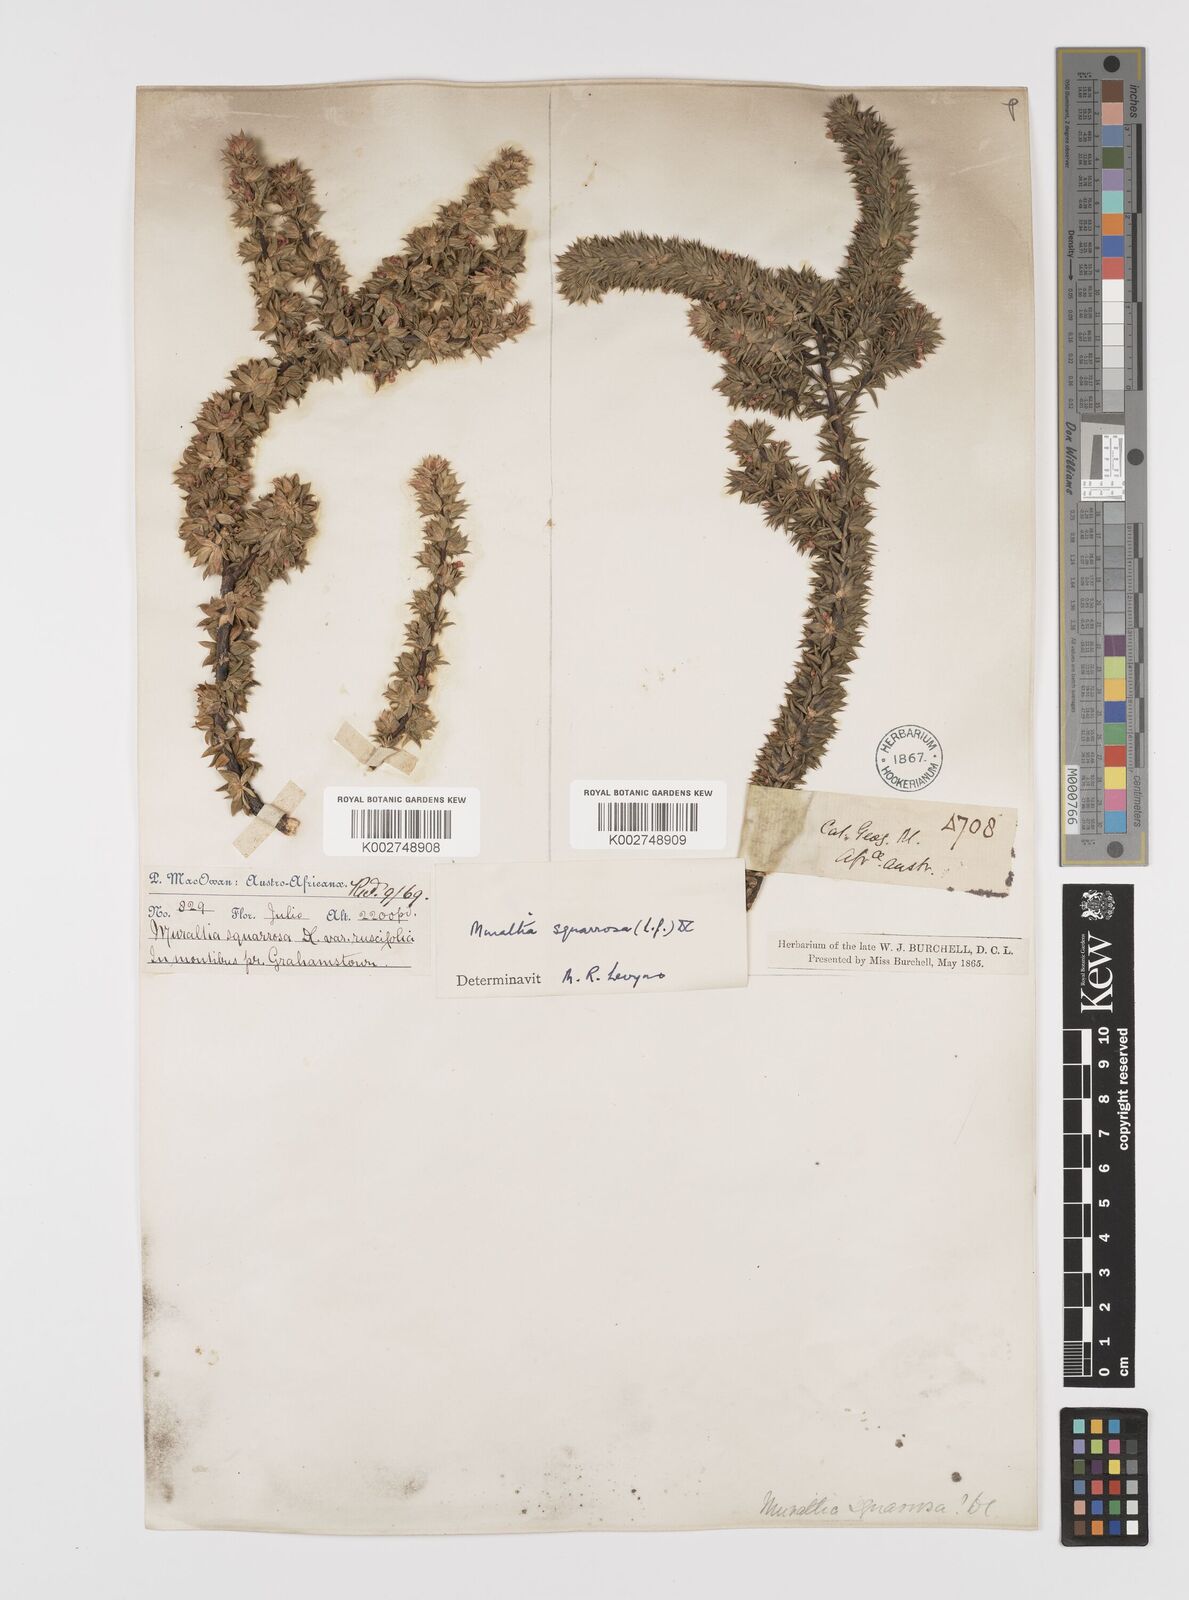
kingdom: Plantae
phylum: Tracheophyta
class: Magnoliopsida
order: Fabales
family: Polygalaceae
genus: Muraltia
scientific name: Muraltia squarrosa
